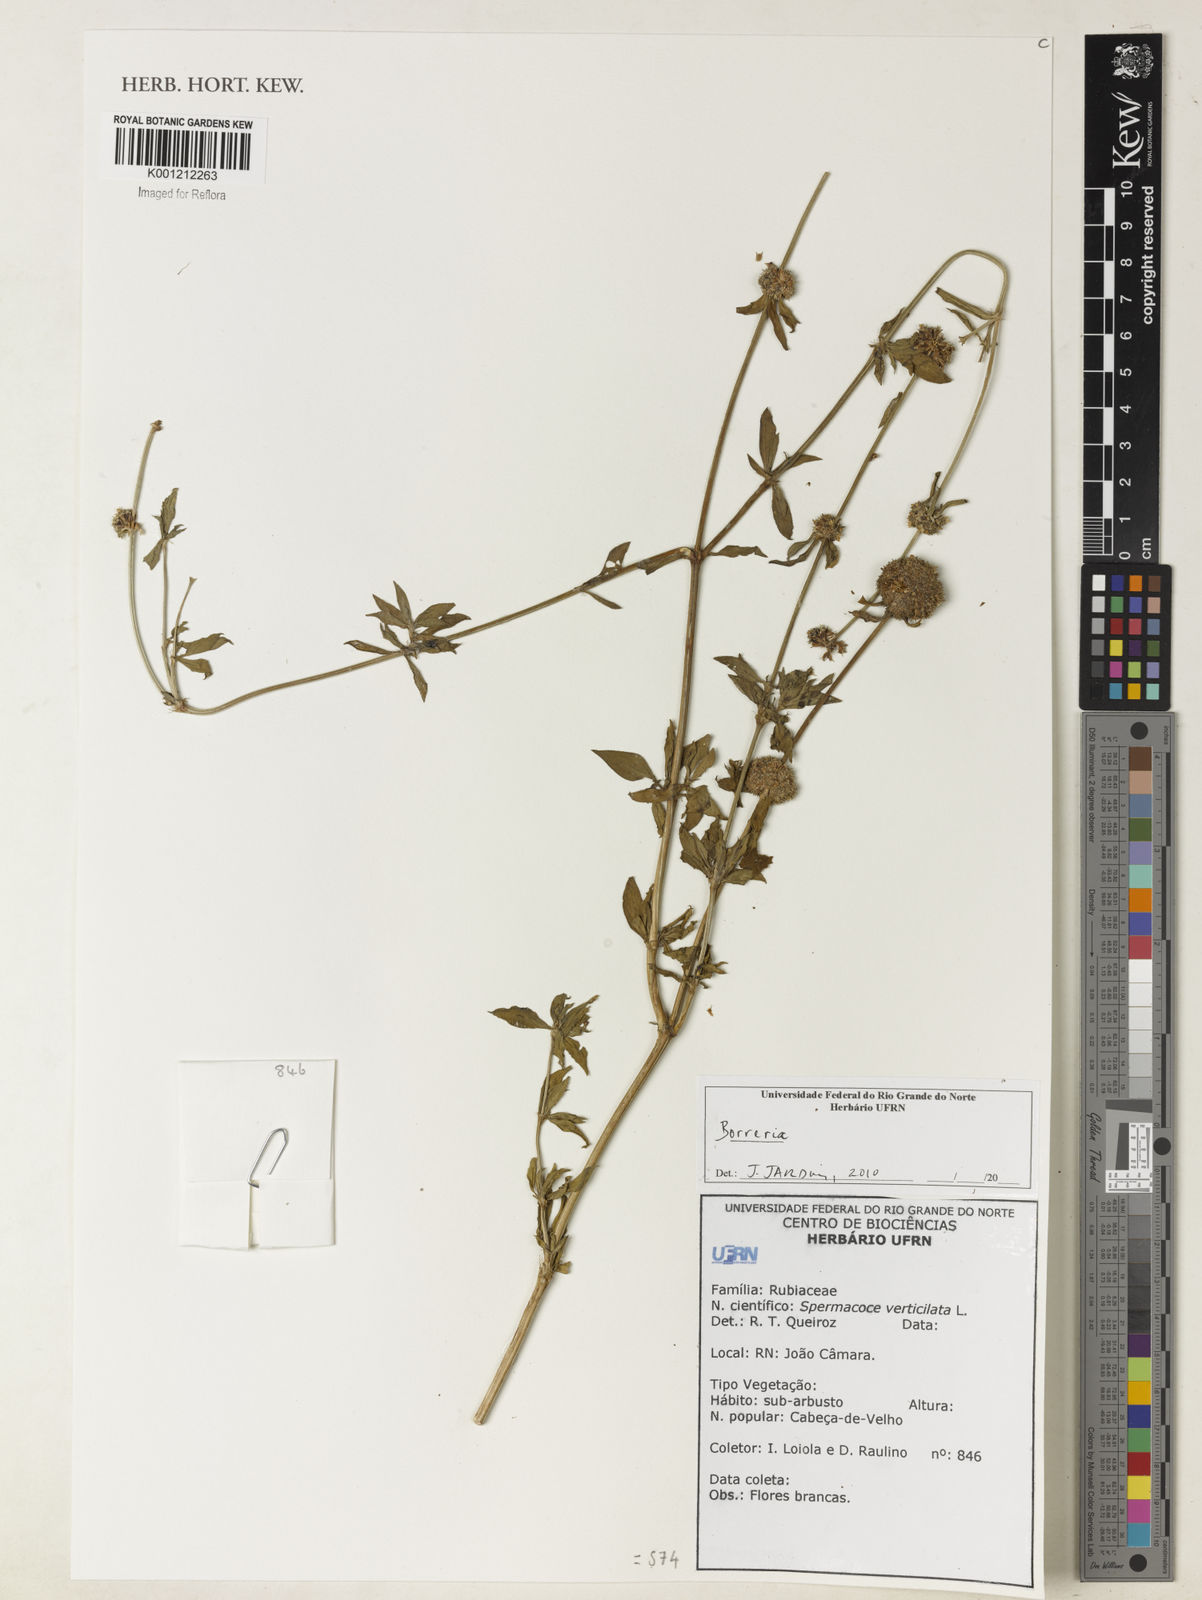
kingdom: Plantae
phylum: Tracheophyta
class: Magnoliopsida
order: Gentianales
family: Rubiaceae
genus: Spermacoce
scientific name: Spermacoce
